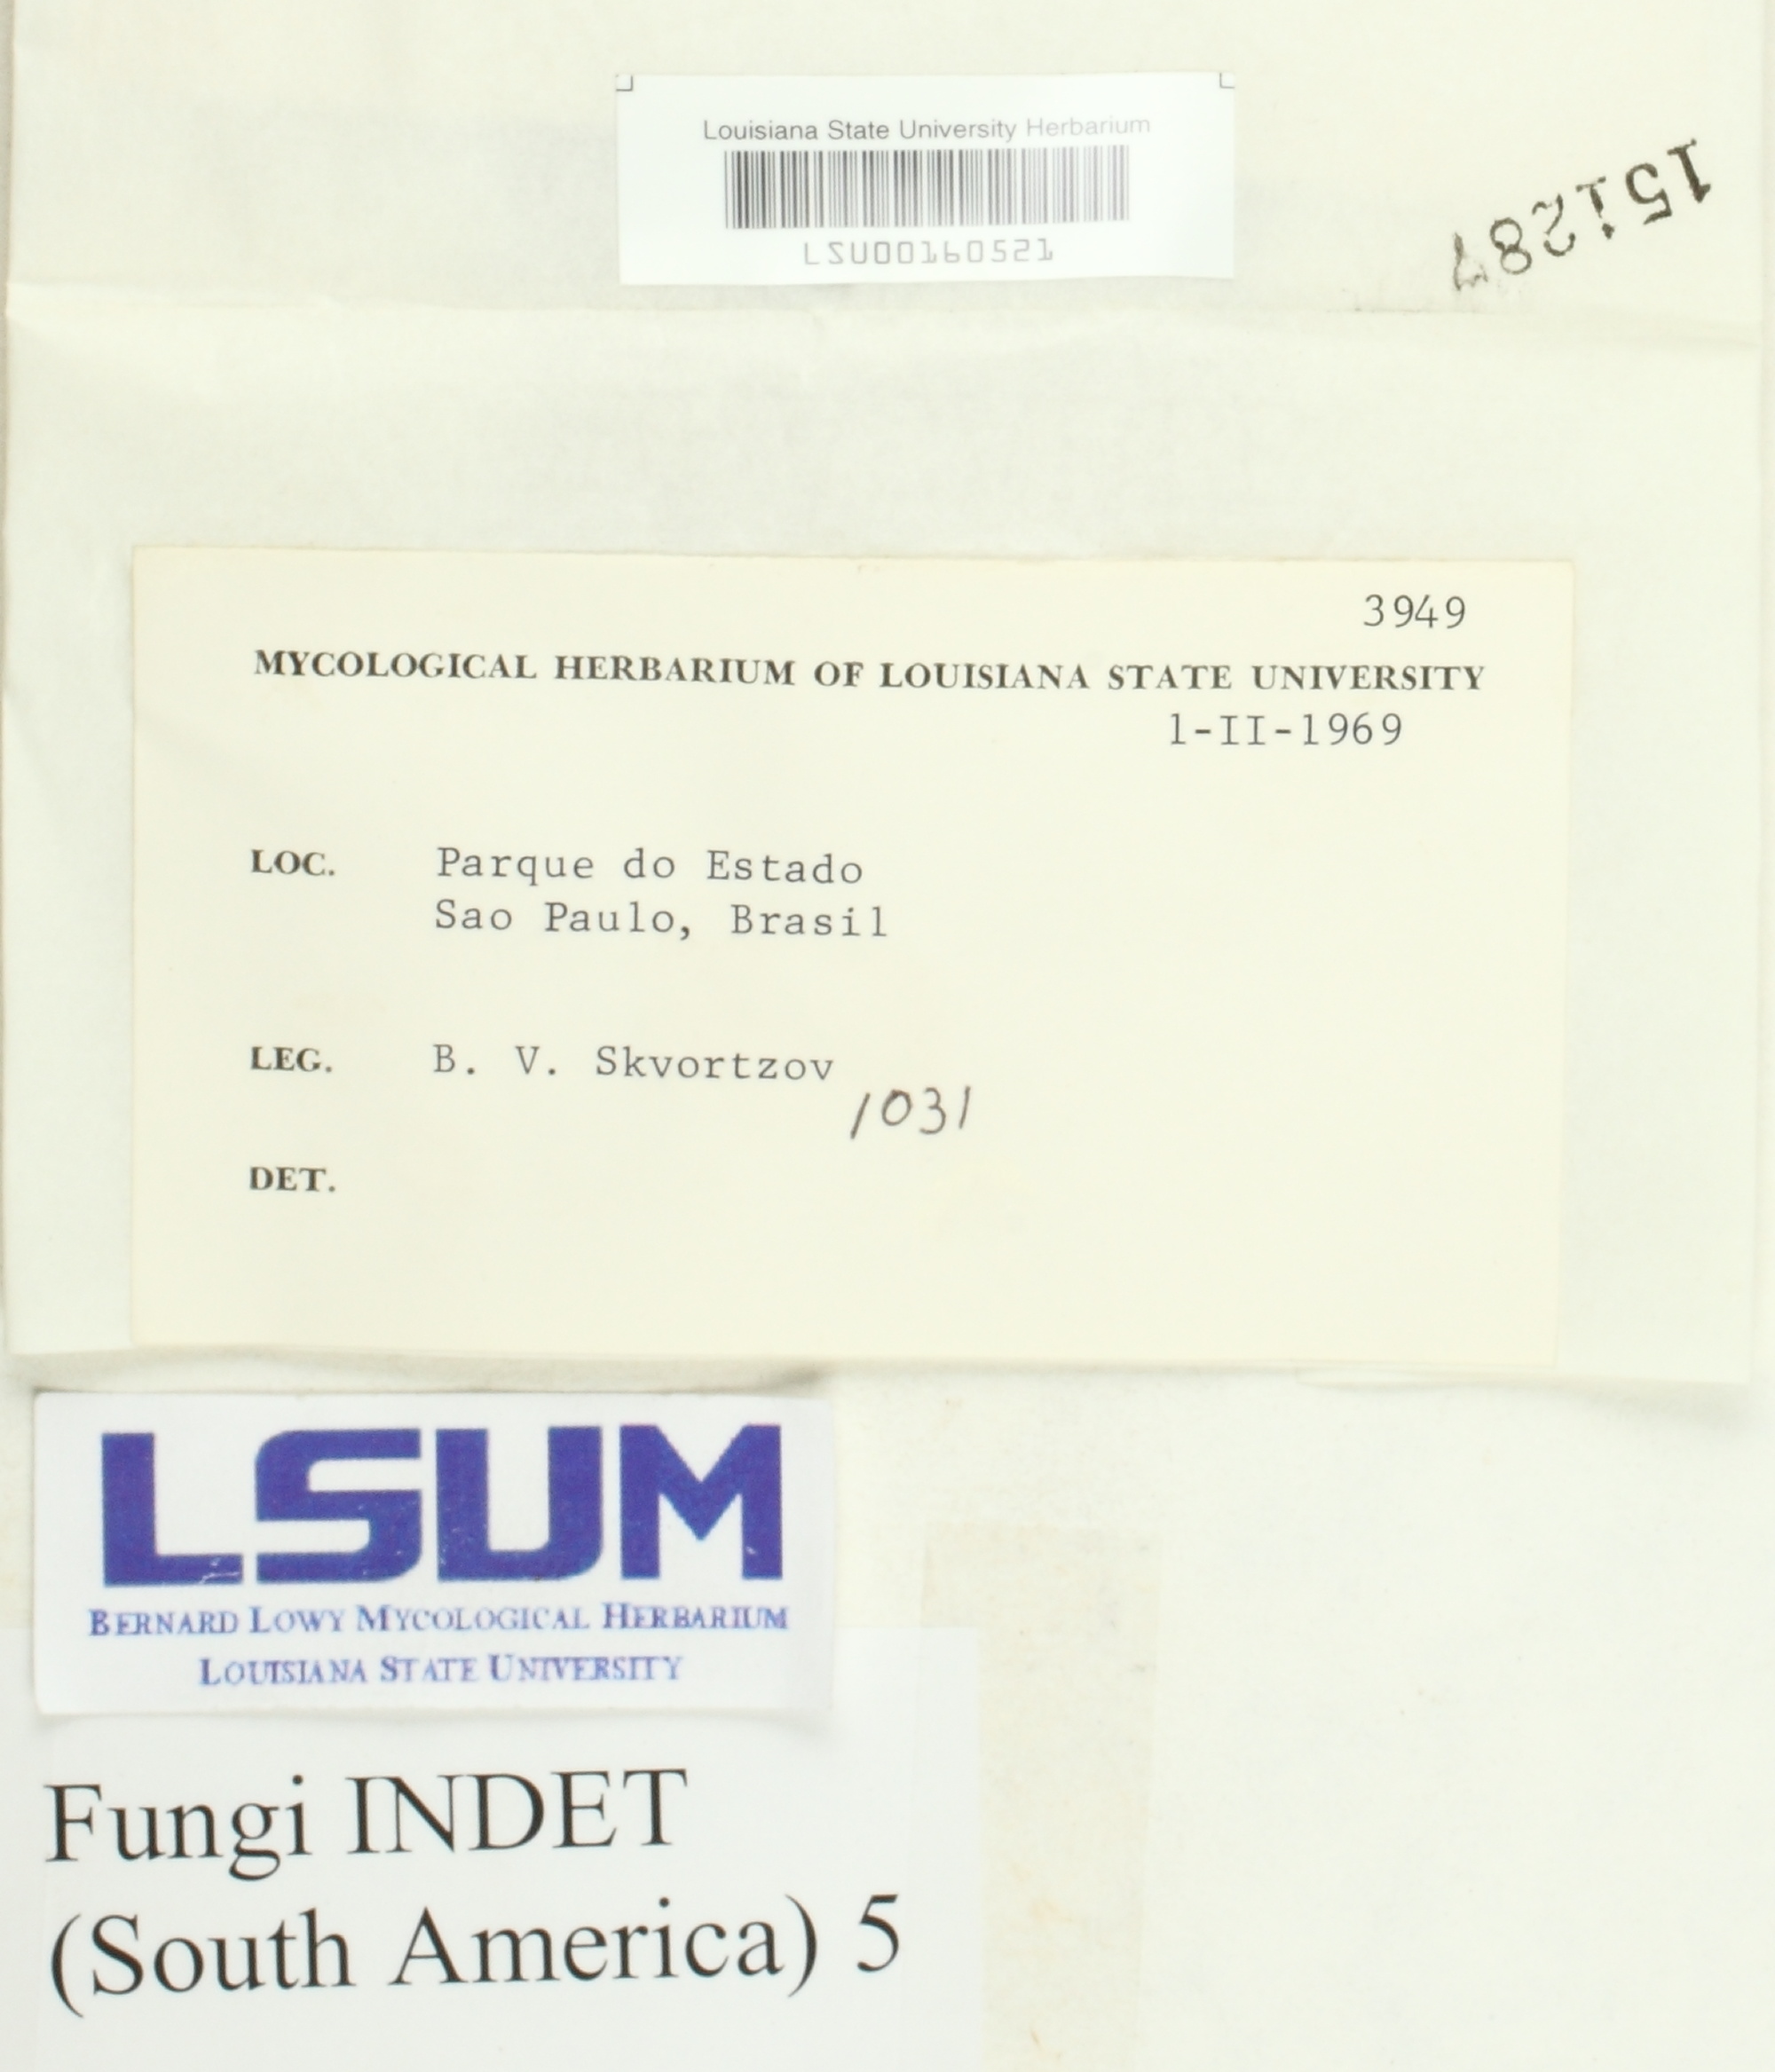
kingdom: Fungi
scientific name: Fungi
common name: Fungi
